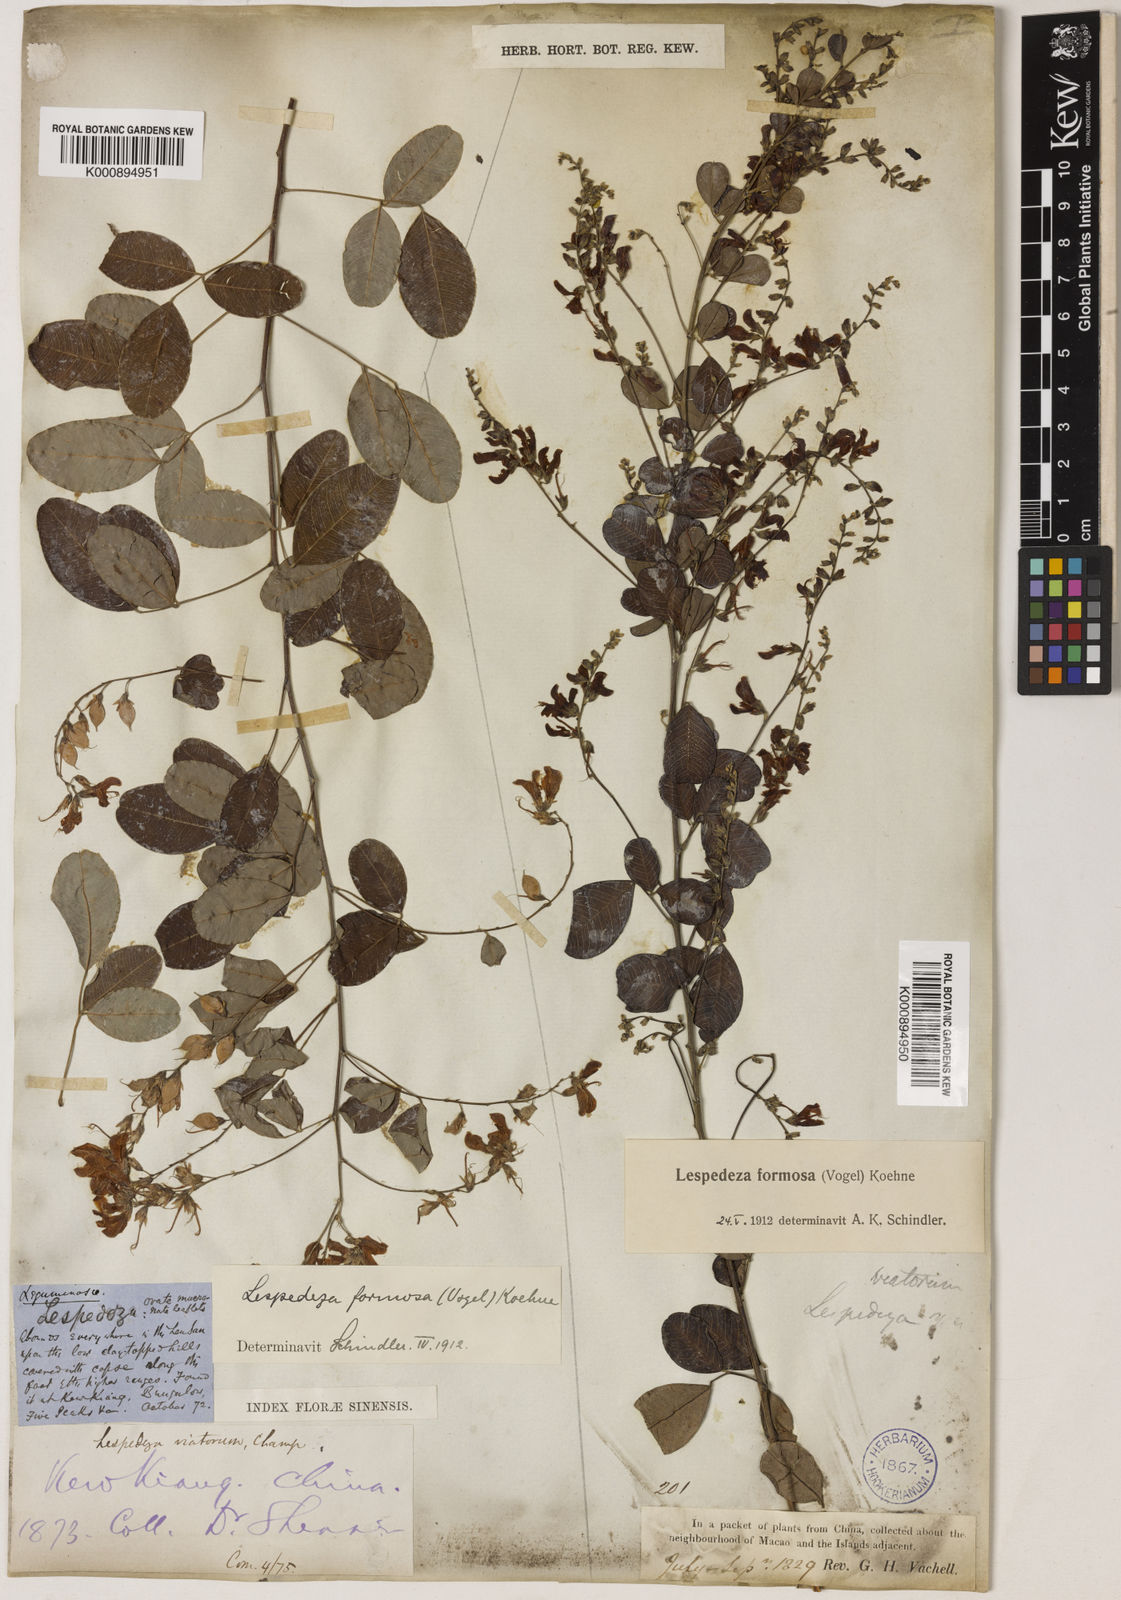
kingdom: Plantae
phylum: Tracheophyta
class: Magnoliopsida
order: Fabales
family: Fabaceae
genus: Lespedeza
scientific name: Lespedeza thunbergii
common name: Thunberg's lespedeza
